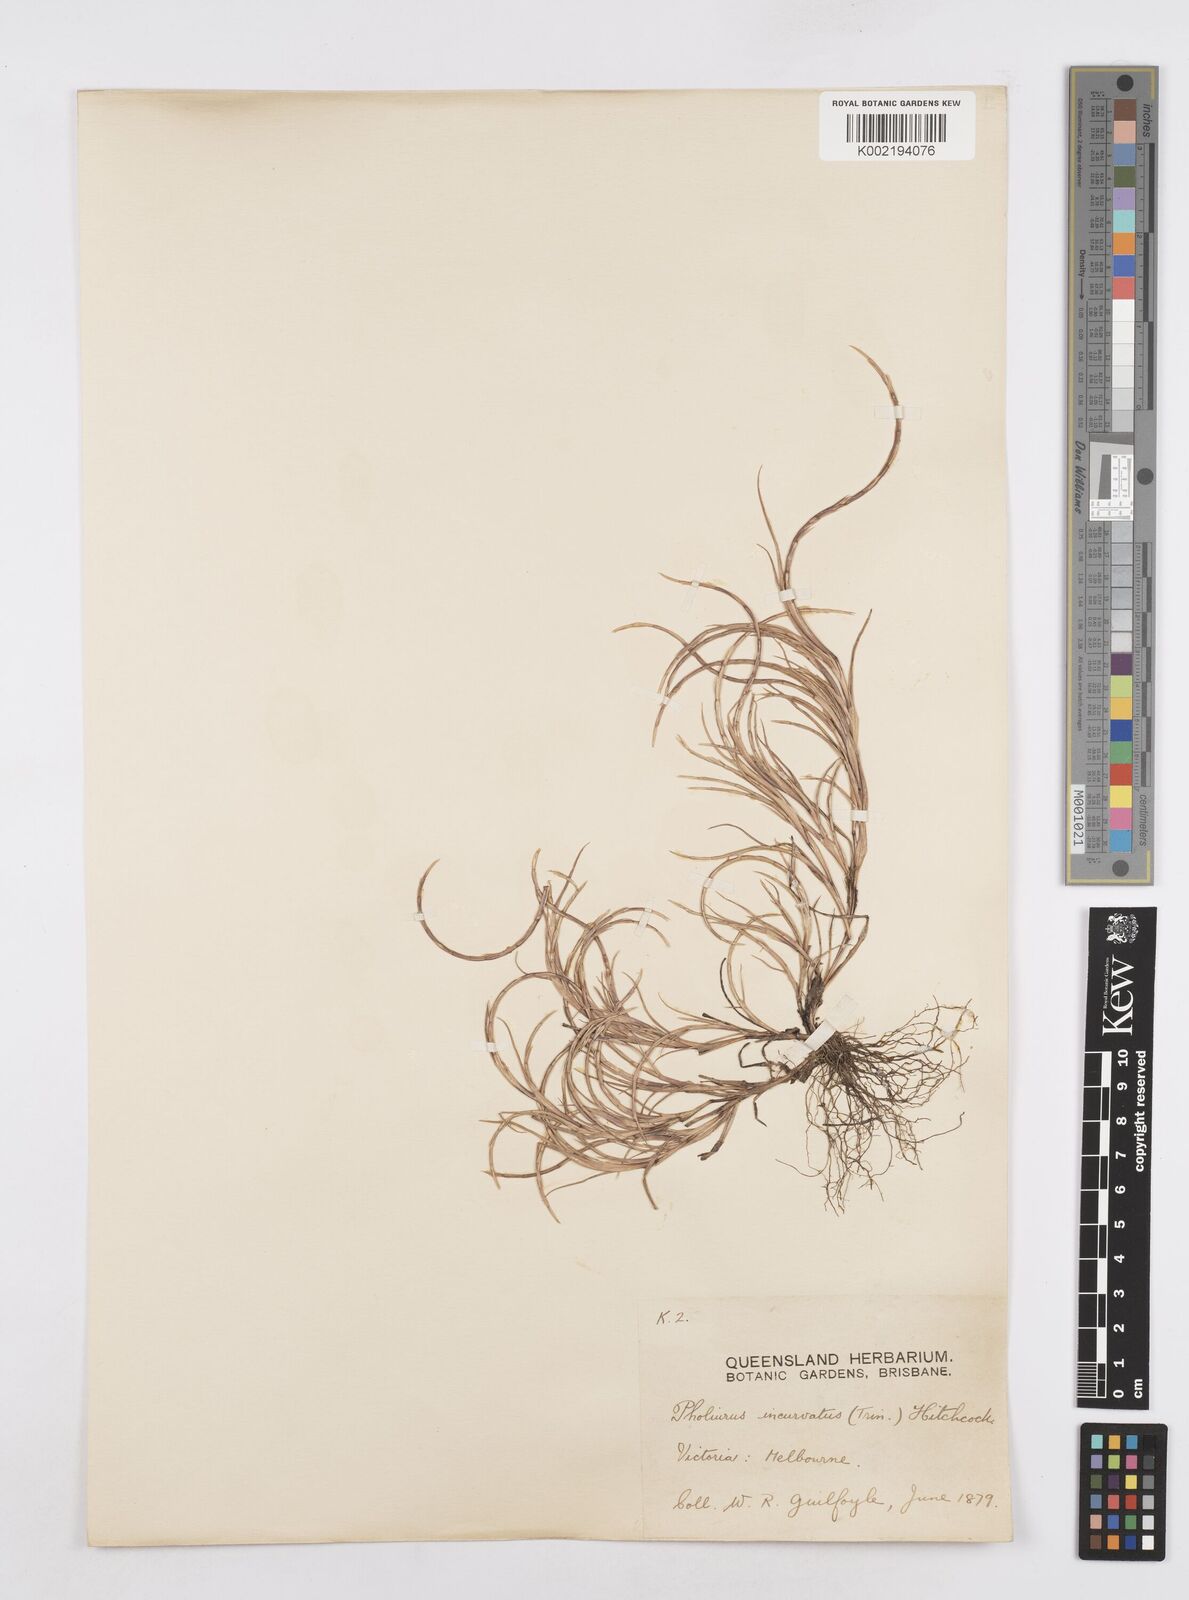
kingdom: Plantae
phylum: Tracheophyta
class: Liliopsida
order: Poales
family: Poaceae
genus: Parapholis
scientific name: Parapholis incurva
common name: Curved sicklegrass
